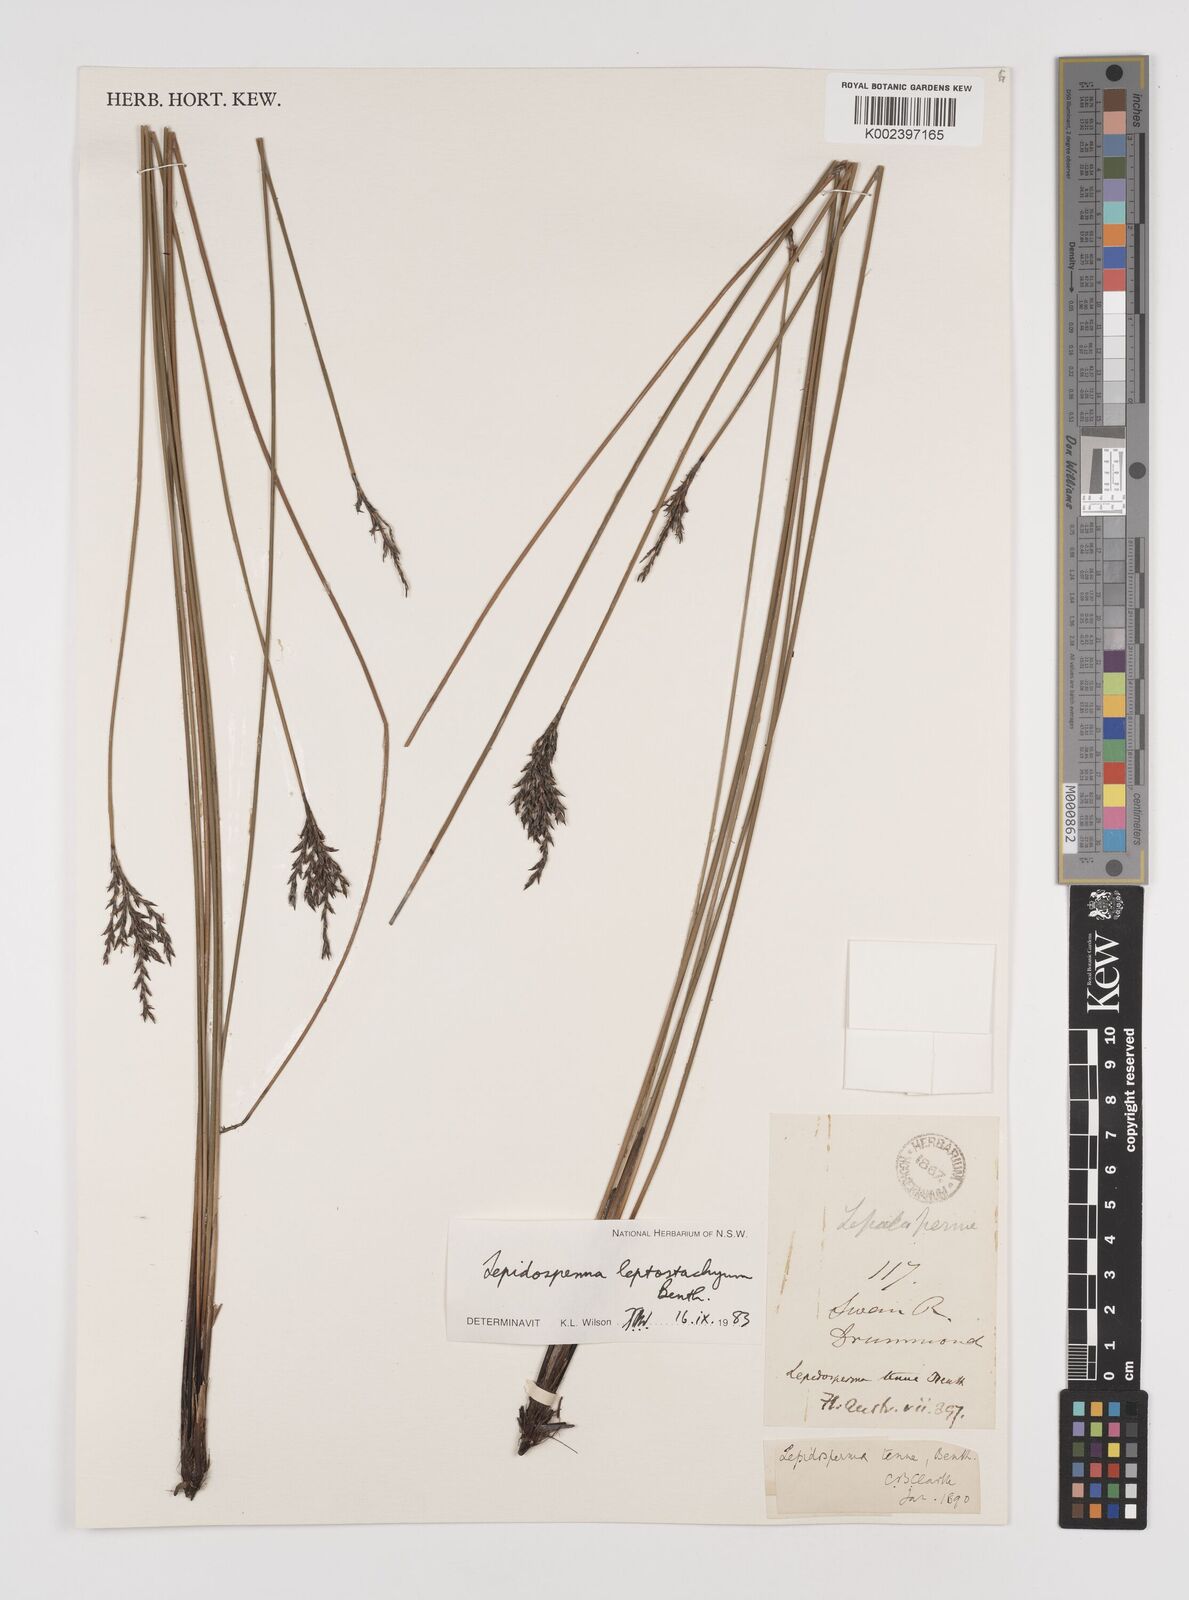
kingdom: Plantae
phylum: Tracheophyta
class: Liliopsida
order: Poales
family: Cyperaceae
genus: Lepidosperma
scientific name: Lepidosperma leptostachyum
